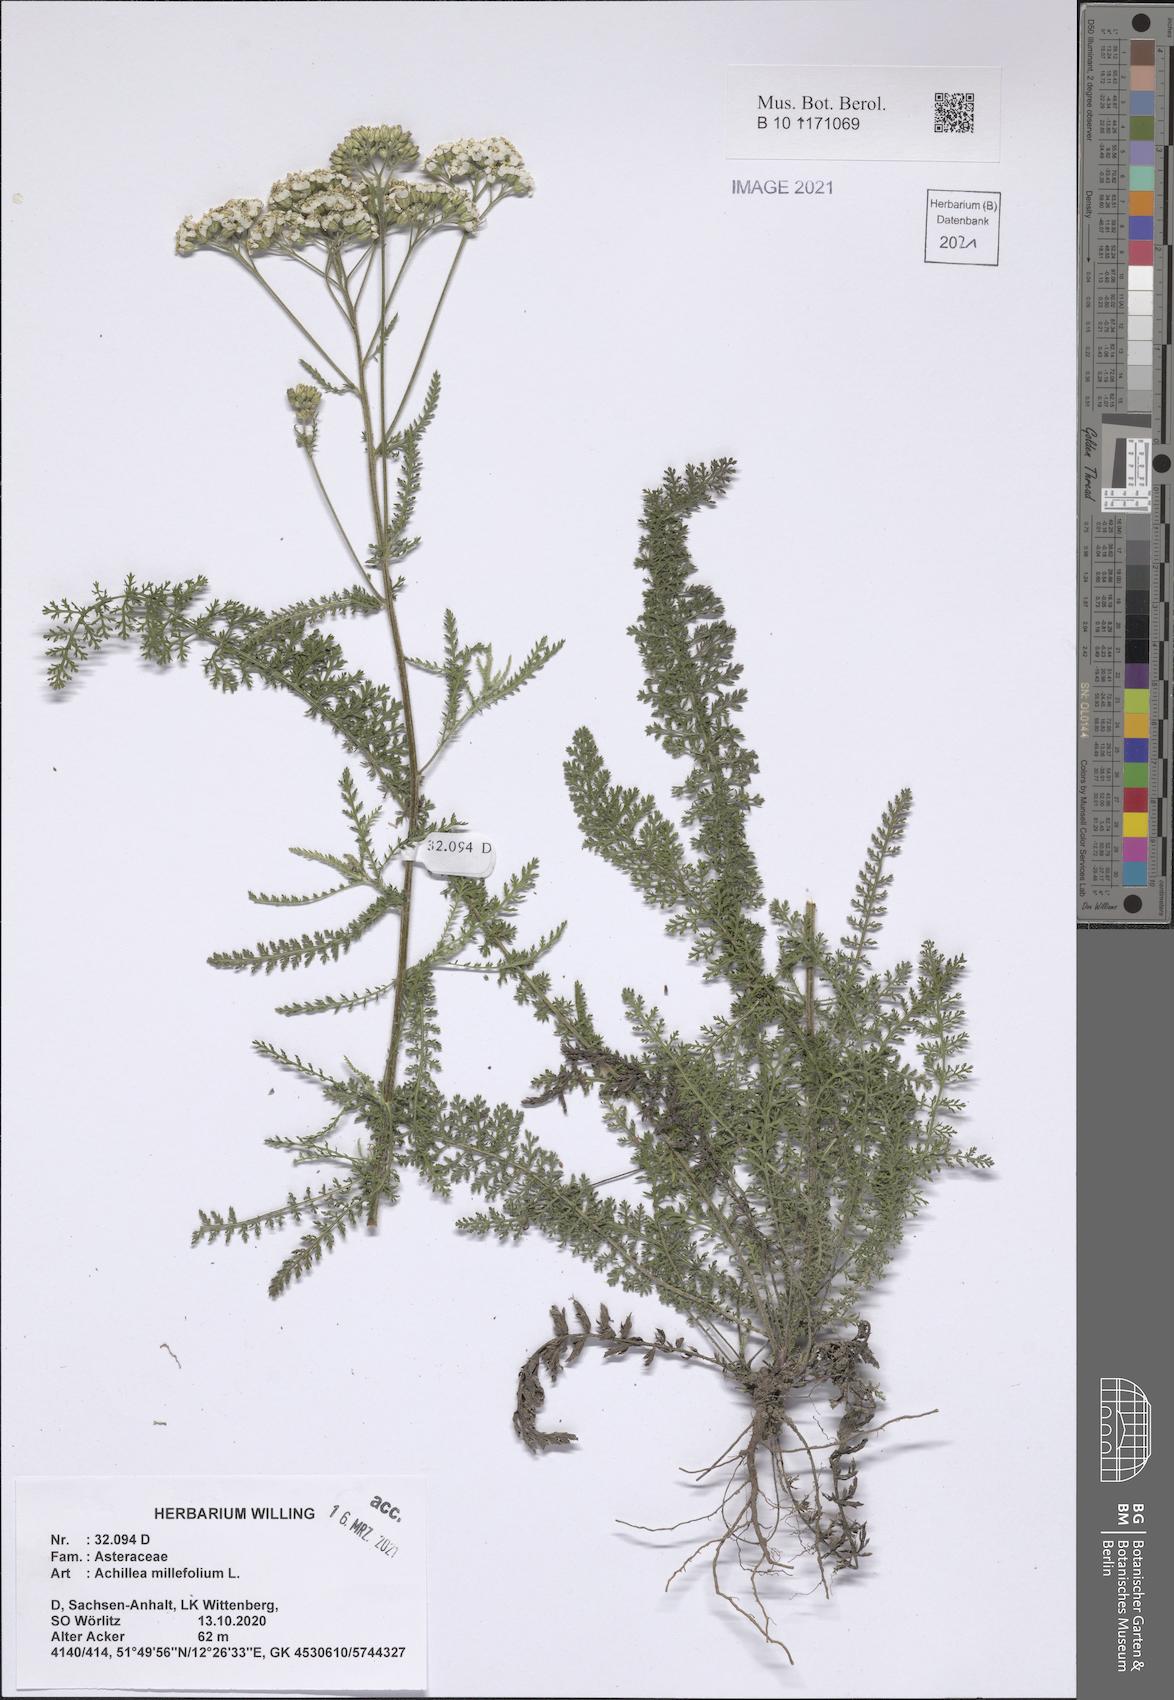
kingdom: Plantae
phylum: Tracheophyta
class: Magnoliopsida
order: Asterales
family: Asteraceae
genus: Achillea
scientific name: Achillea millefolium
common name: Yarrow
